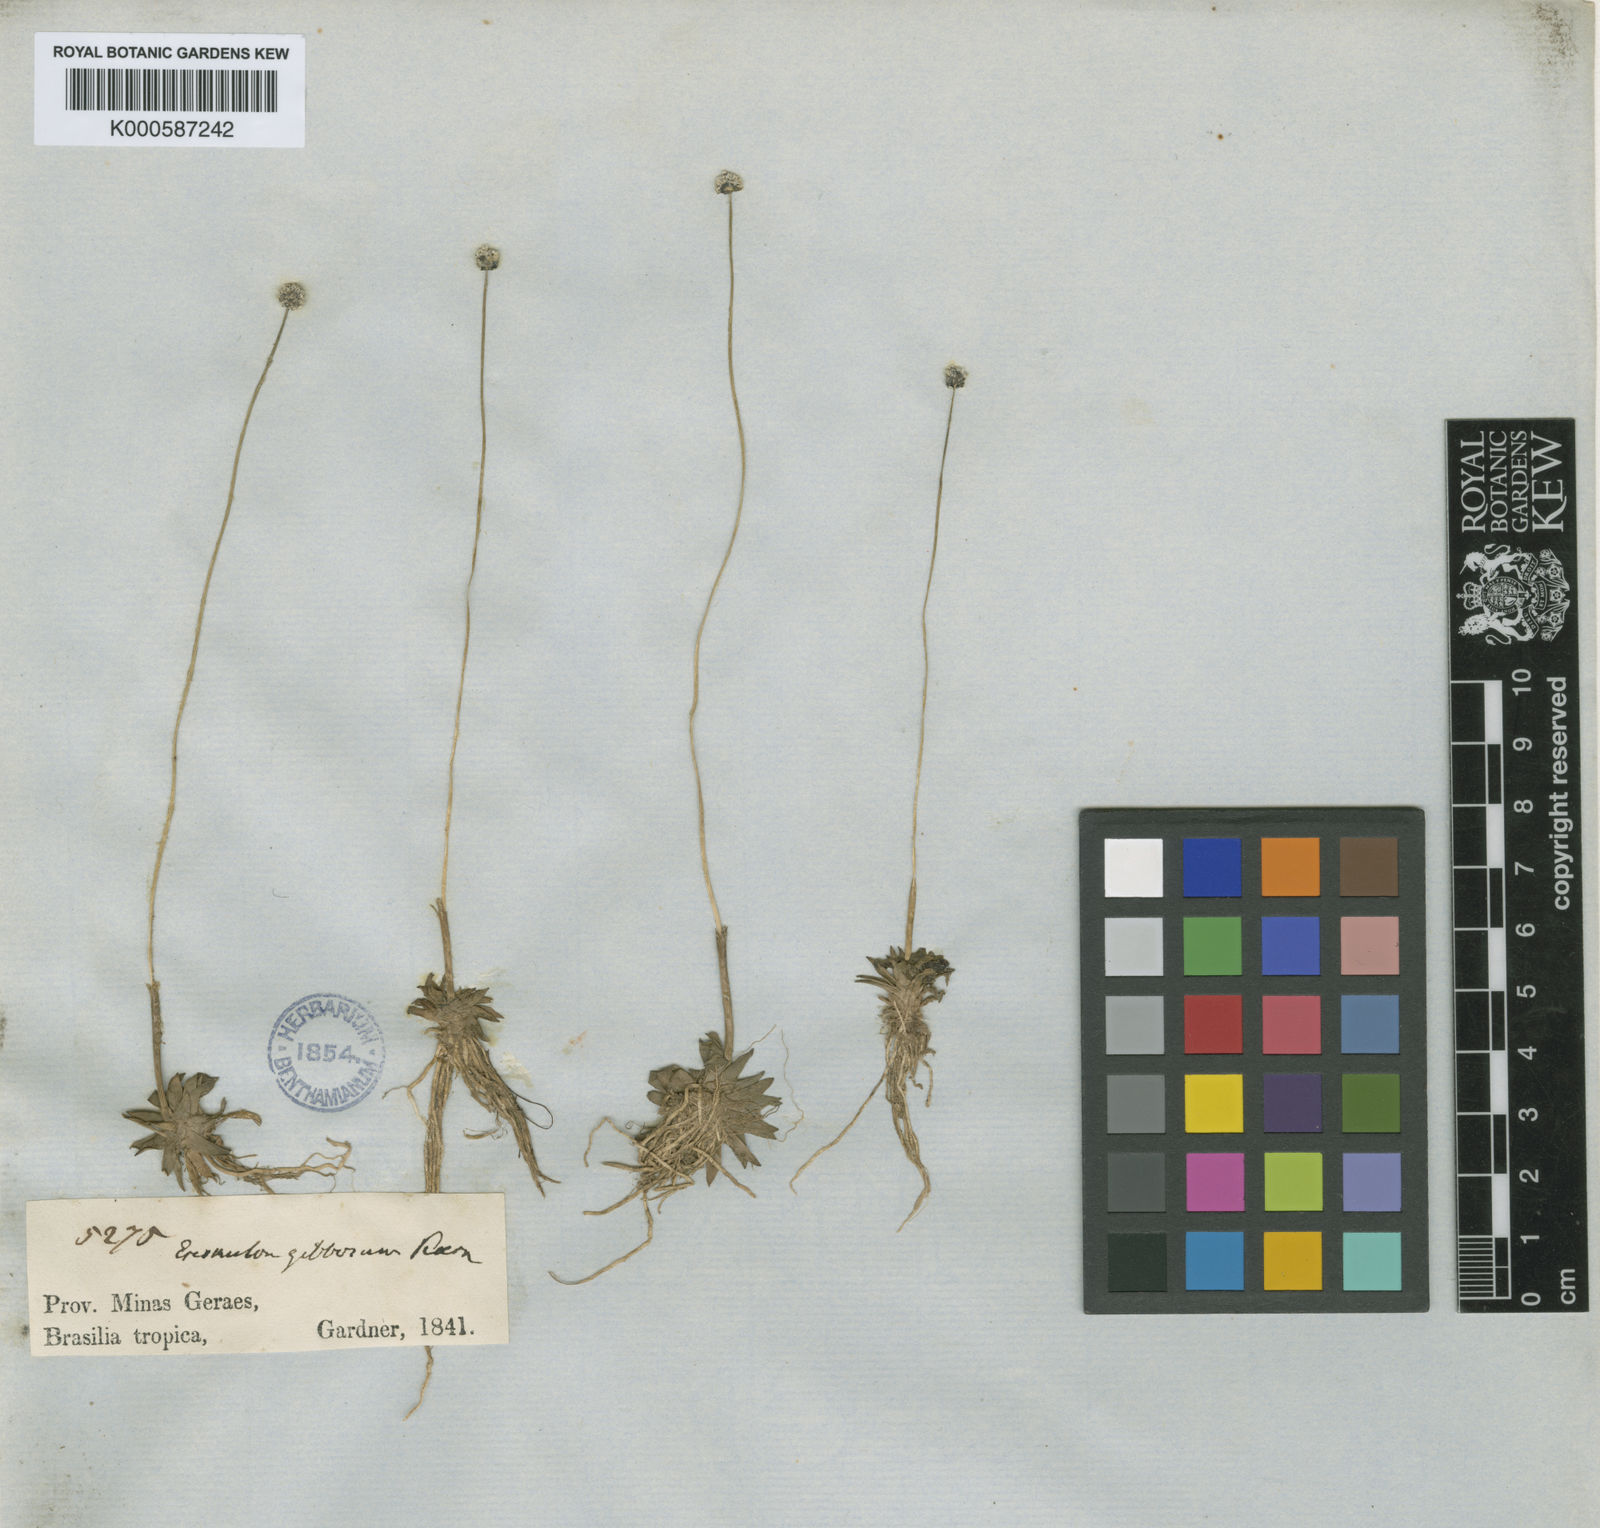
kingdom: Plantae
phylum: Tracheophyta
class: Liliopsida
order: Poales
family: Eriocaulaceae
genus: Eriocaulon
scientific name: Eriocaulon
